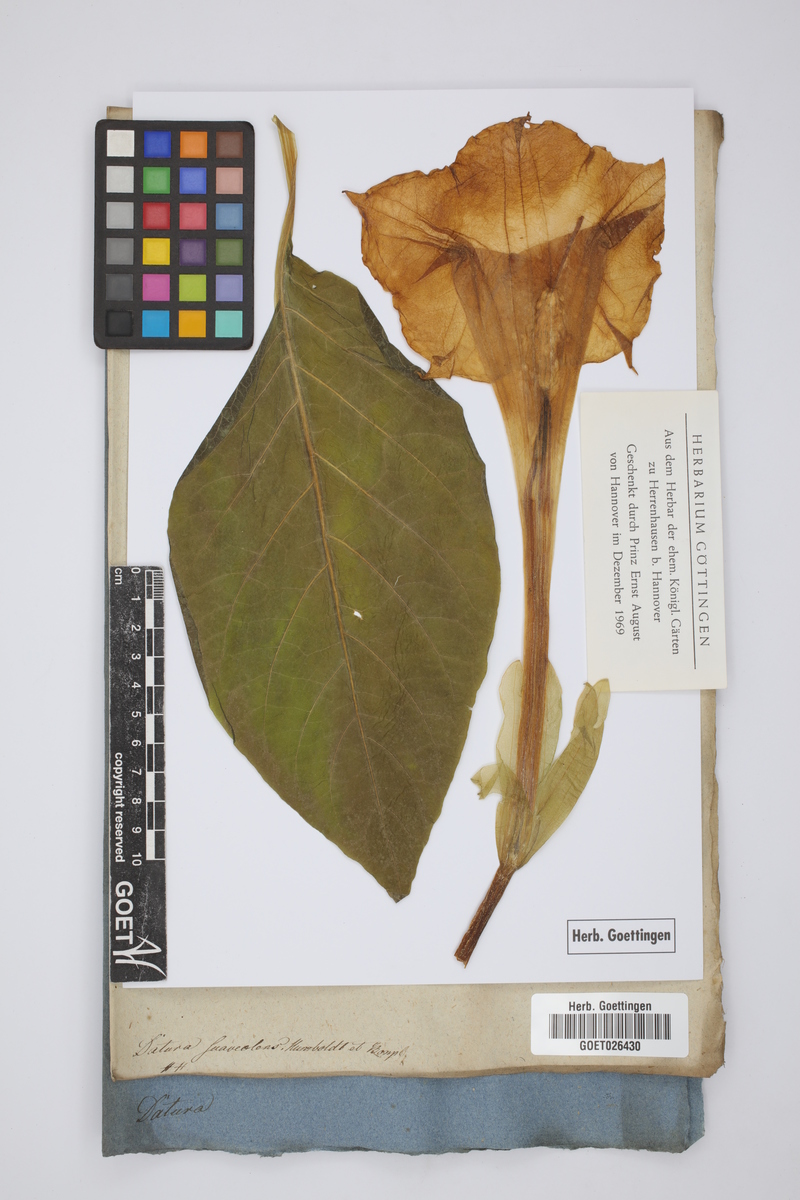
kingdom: Plantae
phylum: Tracheophyta
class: Magnoliopsida
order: Solanales
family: Solanaceae
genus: Brugmansia
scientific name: Brugmansia suaveolens
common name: Angel's tears
